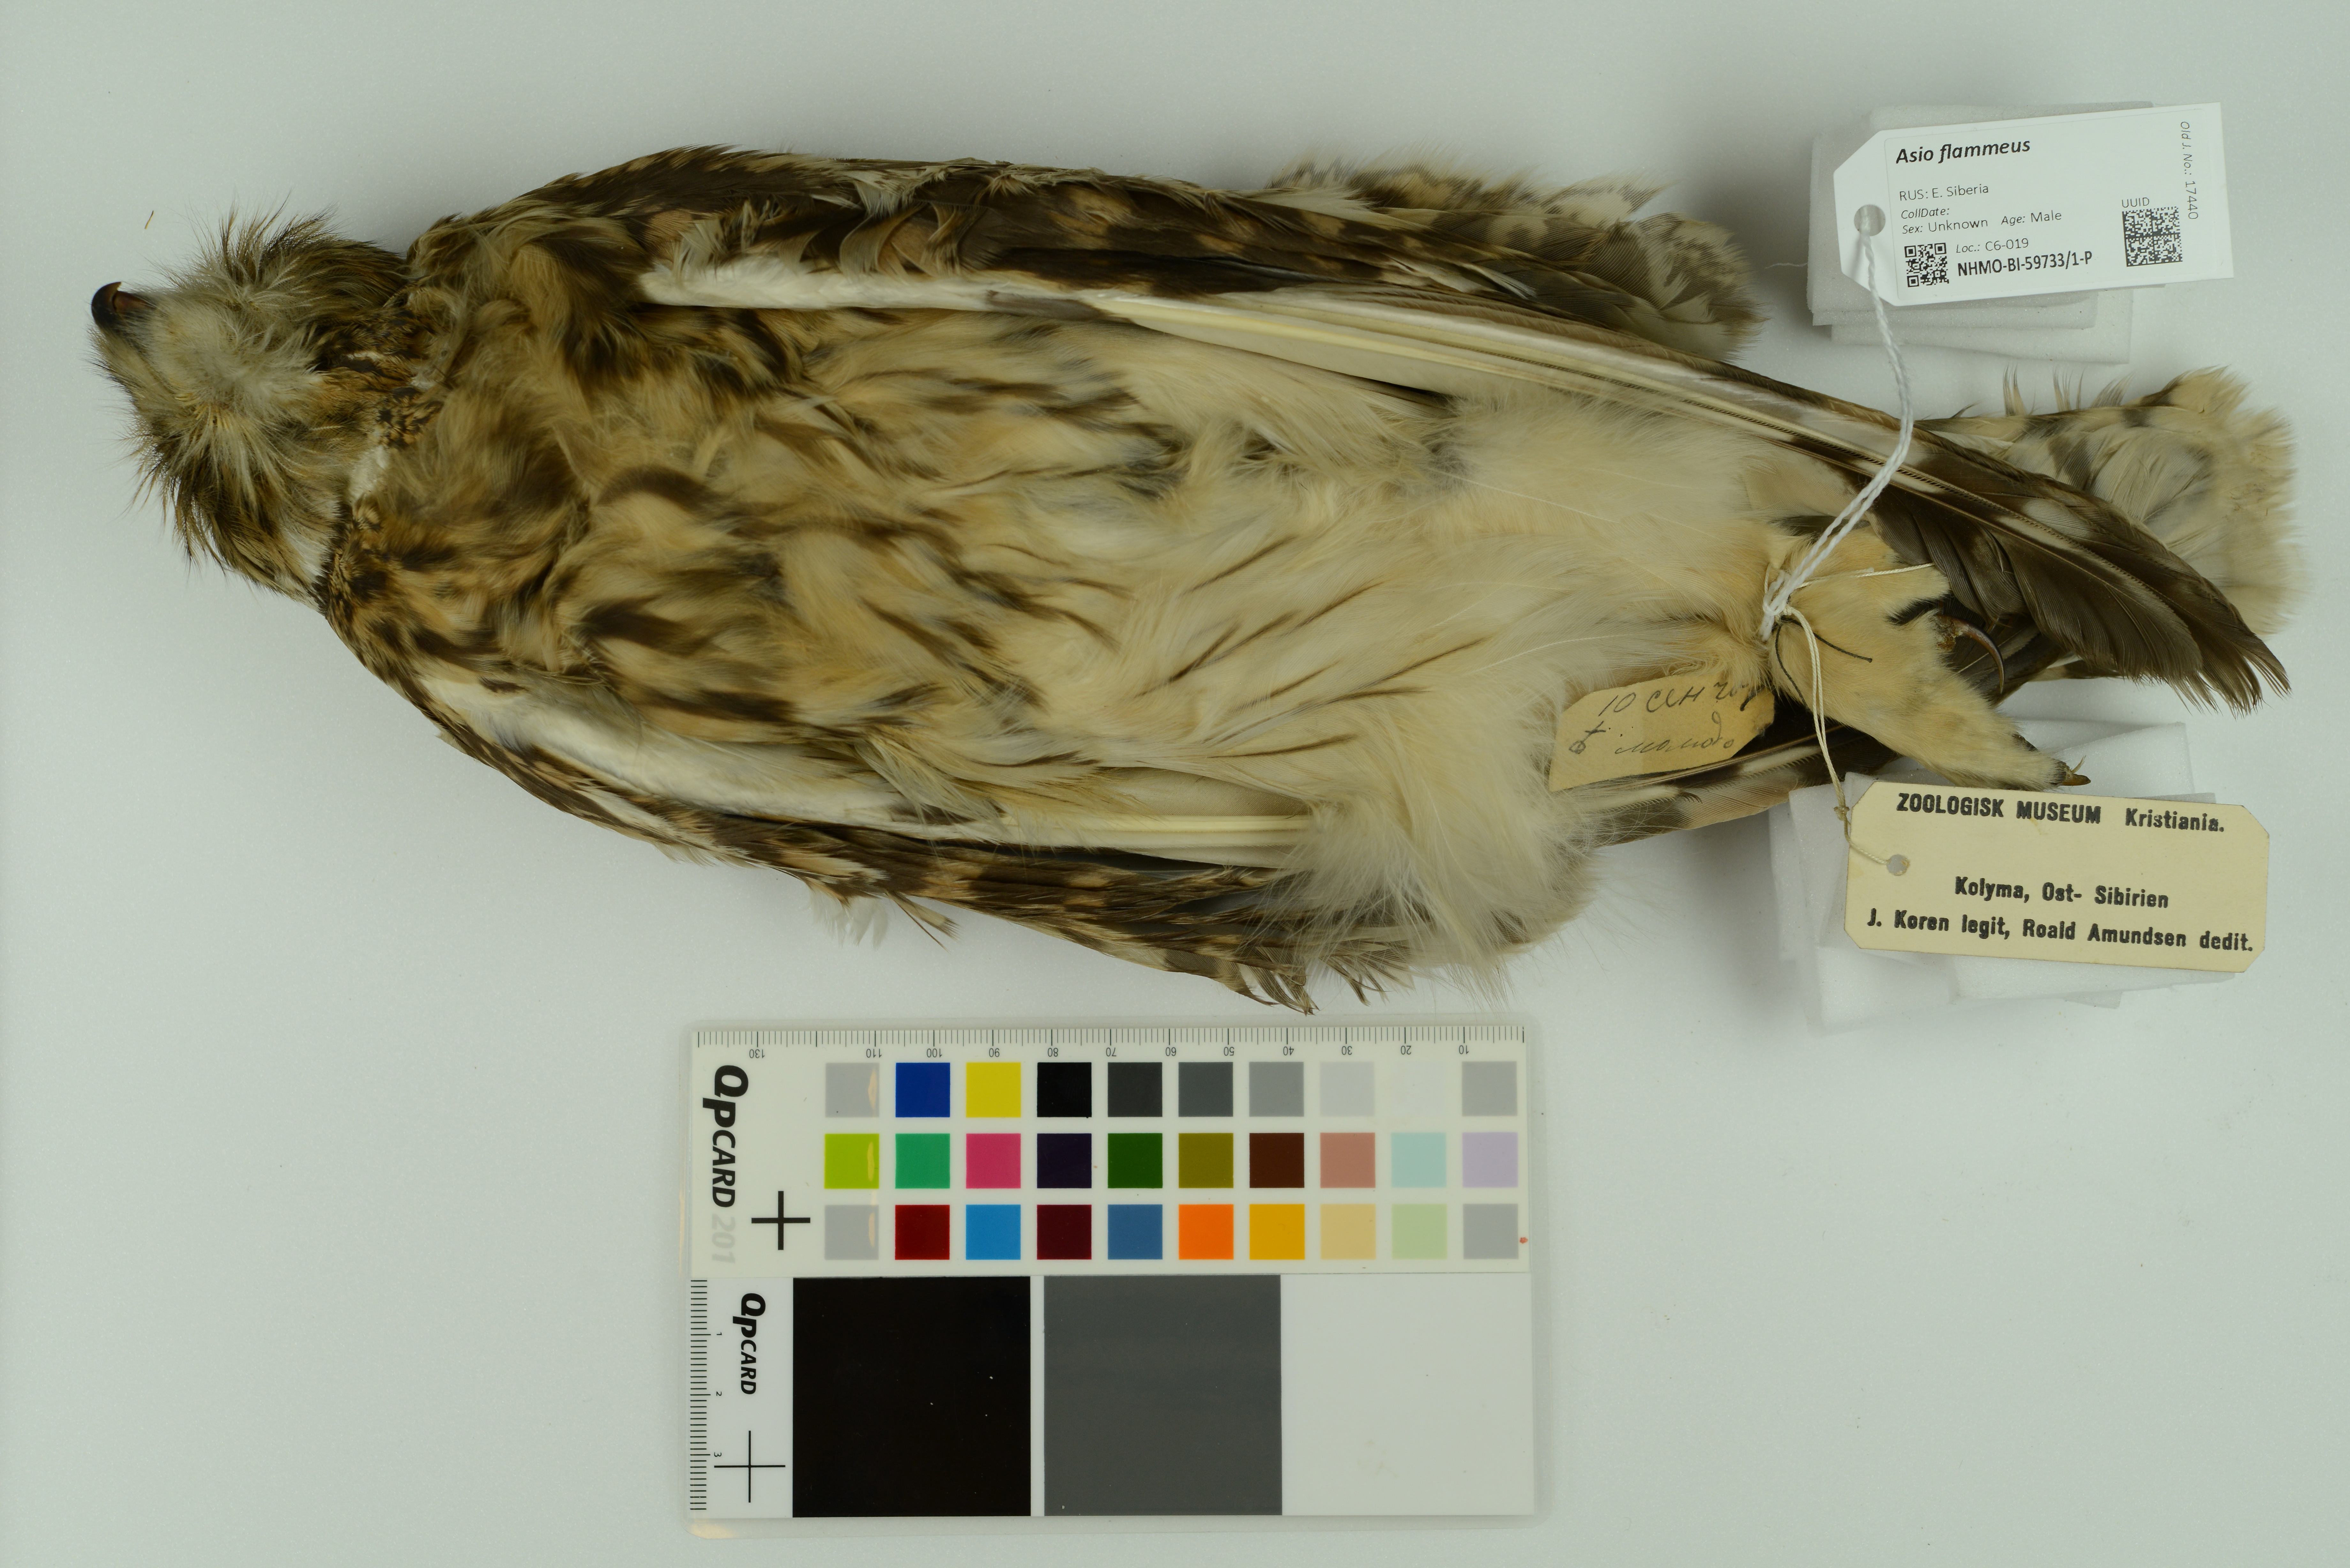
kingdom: Animalia
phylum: Chordata
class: Aves
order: Strigiformes
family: Strigidae
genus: Asio
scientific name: Asio flammeus
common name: Short-eared owl
